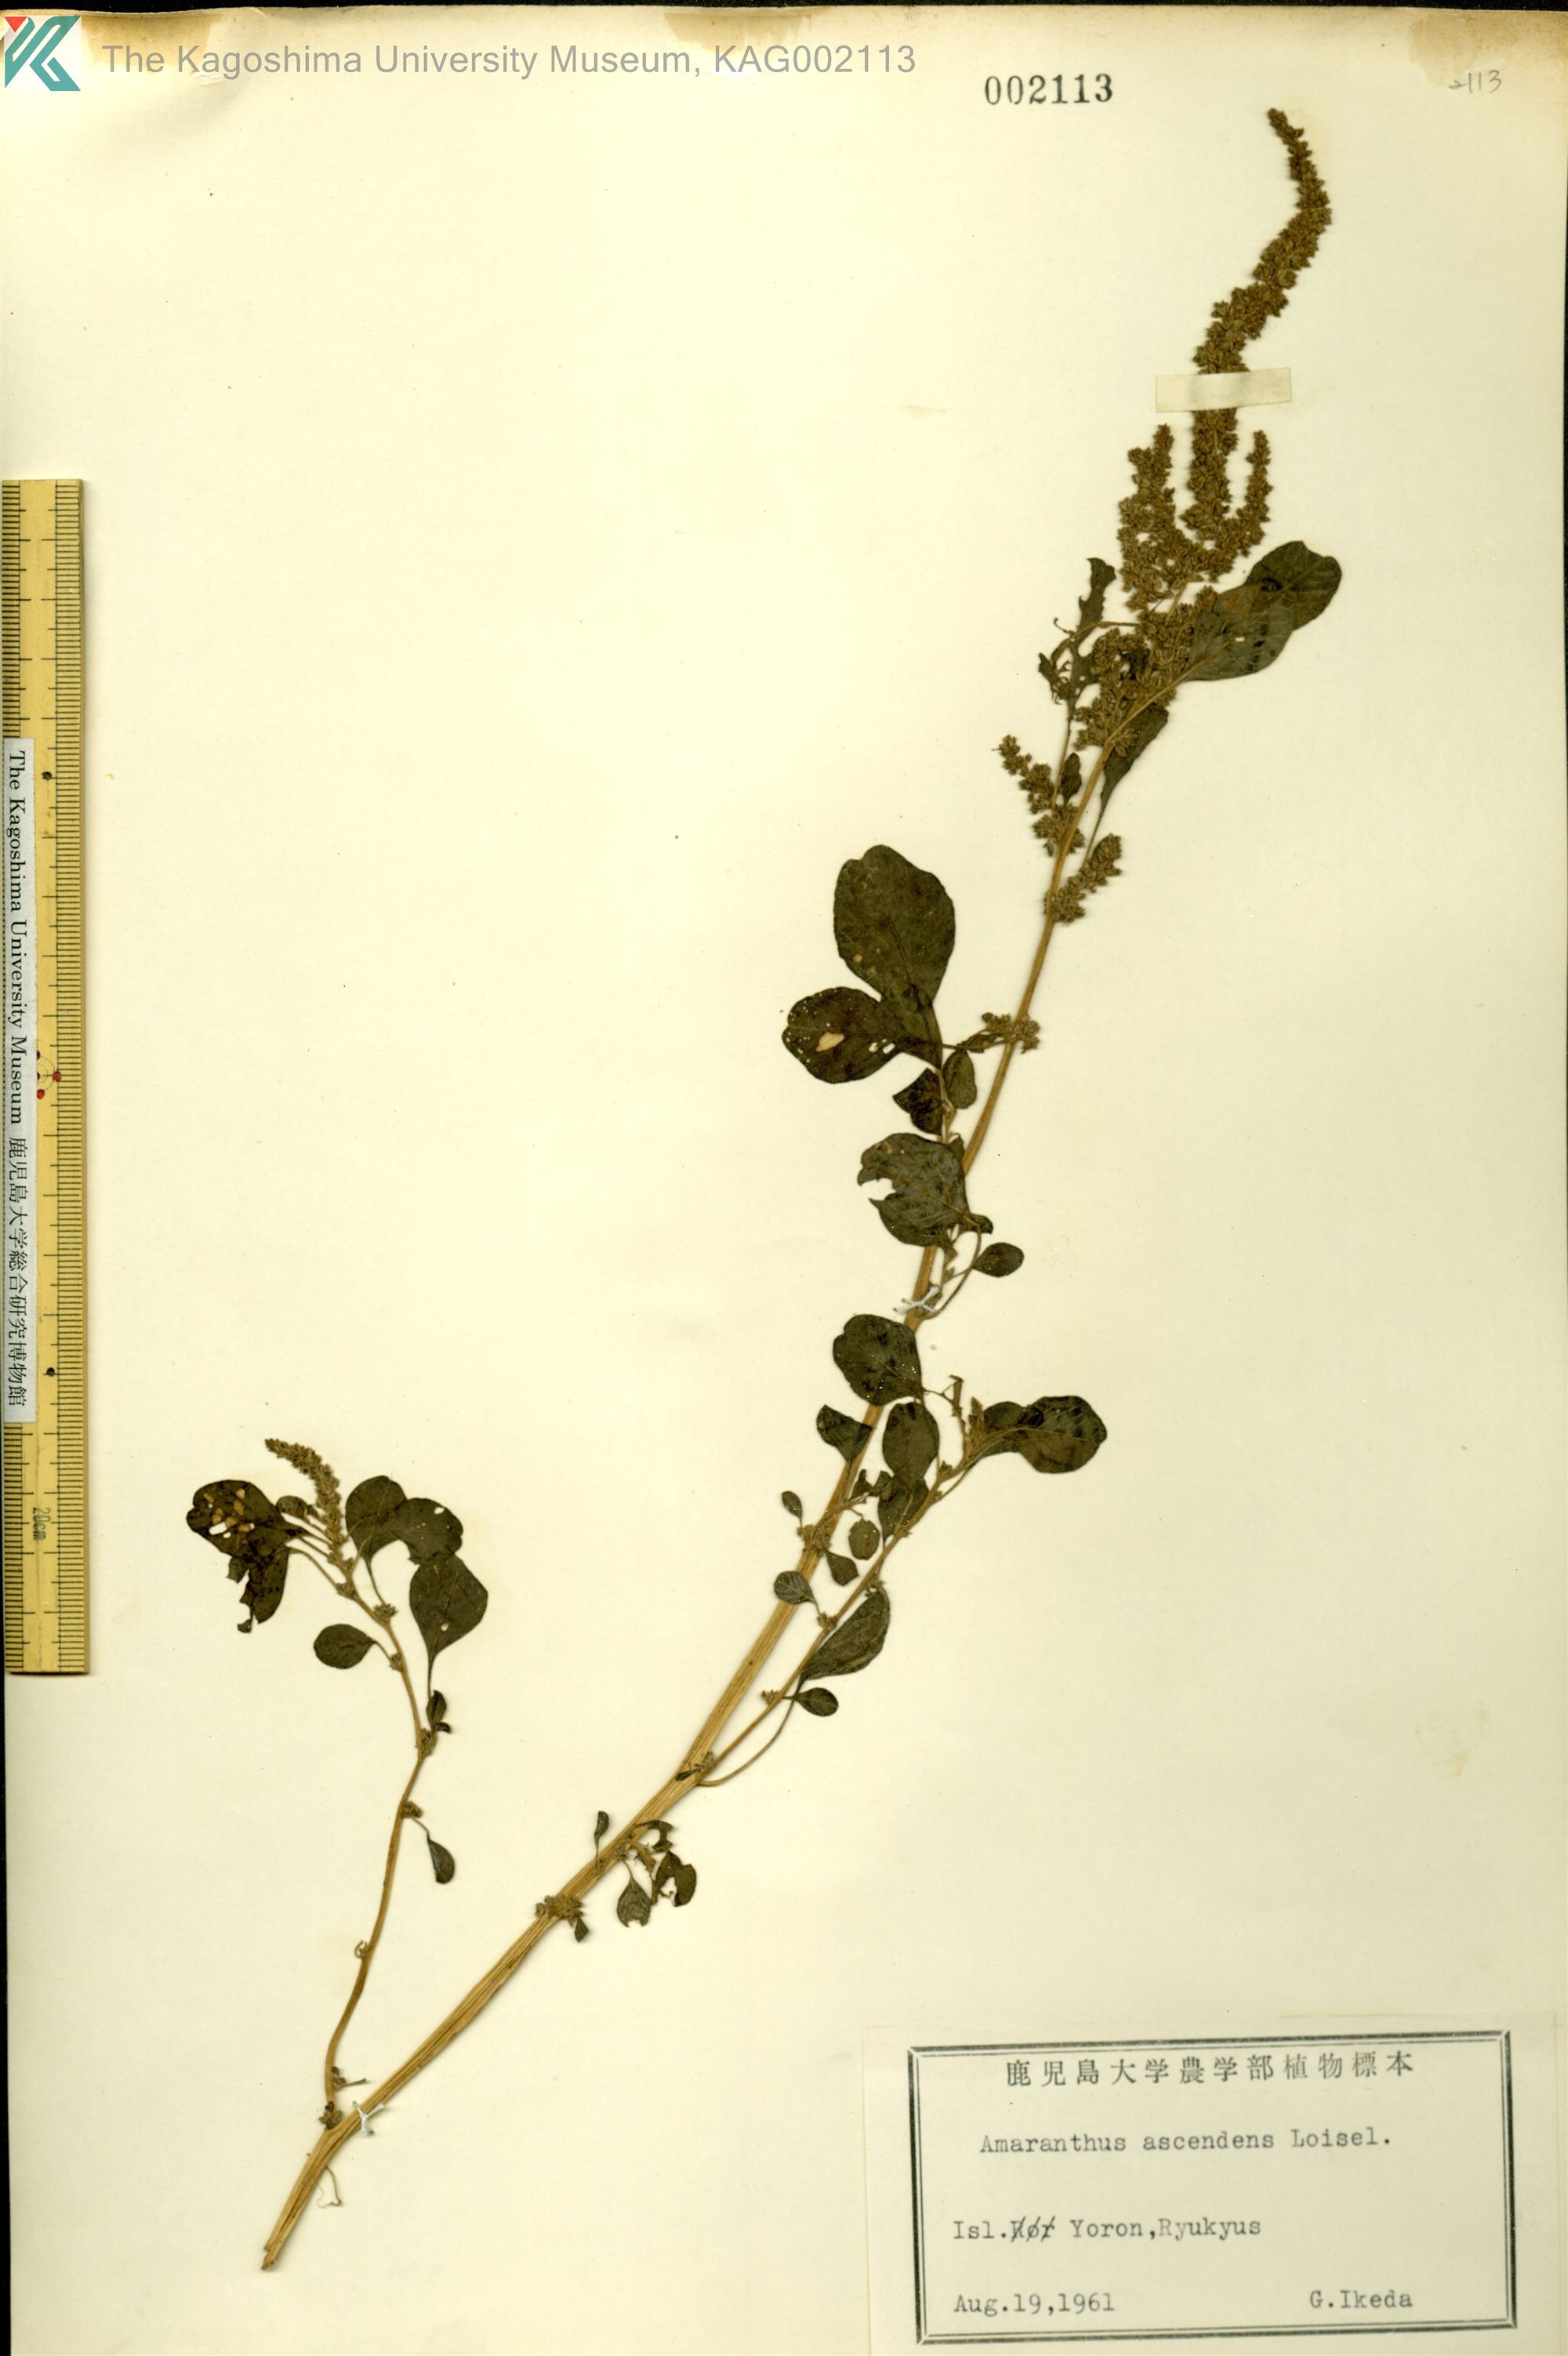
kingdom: Plantae
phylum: Tracheophyta
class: Magnoliopsida
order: Caryophyllales
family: Amaranthaceae
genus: Amaranthus
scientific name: Amaranthus blitum
